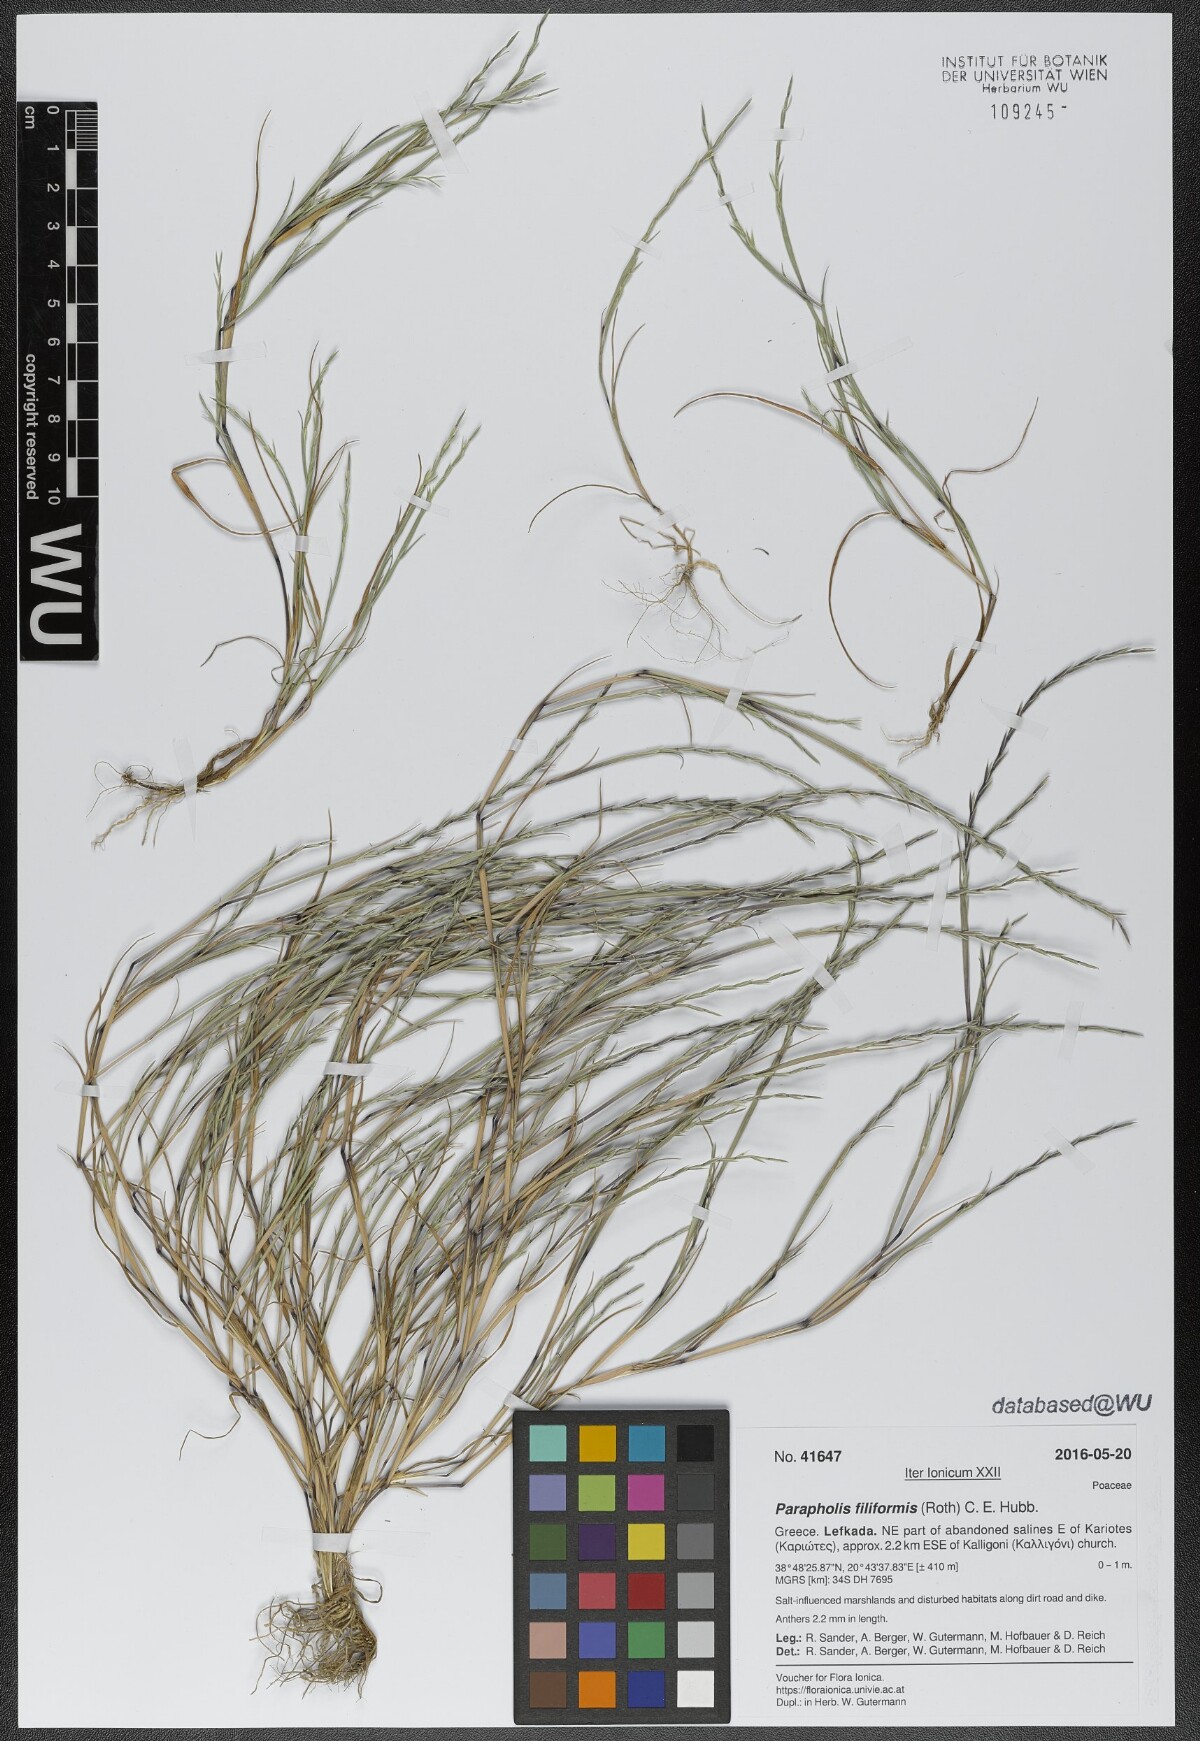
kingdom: Plantae
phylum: Tracheophyta
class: Liliopsida
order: Poales
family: Poaceae
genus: Parapholis
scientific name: Parapholis filiformis
